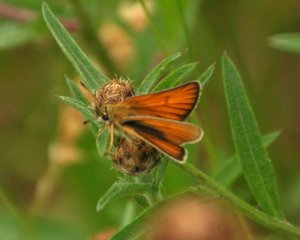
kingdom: Animalia
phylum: Arthropoda
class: Insecta
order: Lepidoptera
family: Hesperiidae
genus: Thymelicus
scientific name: Thymelicus lineola
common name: European Skipper
